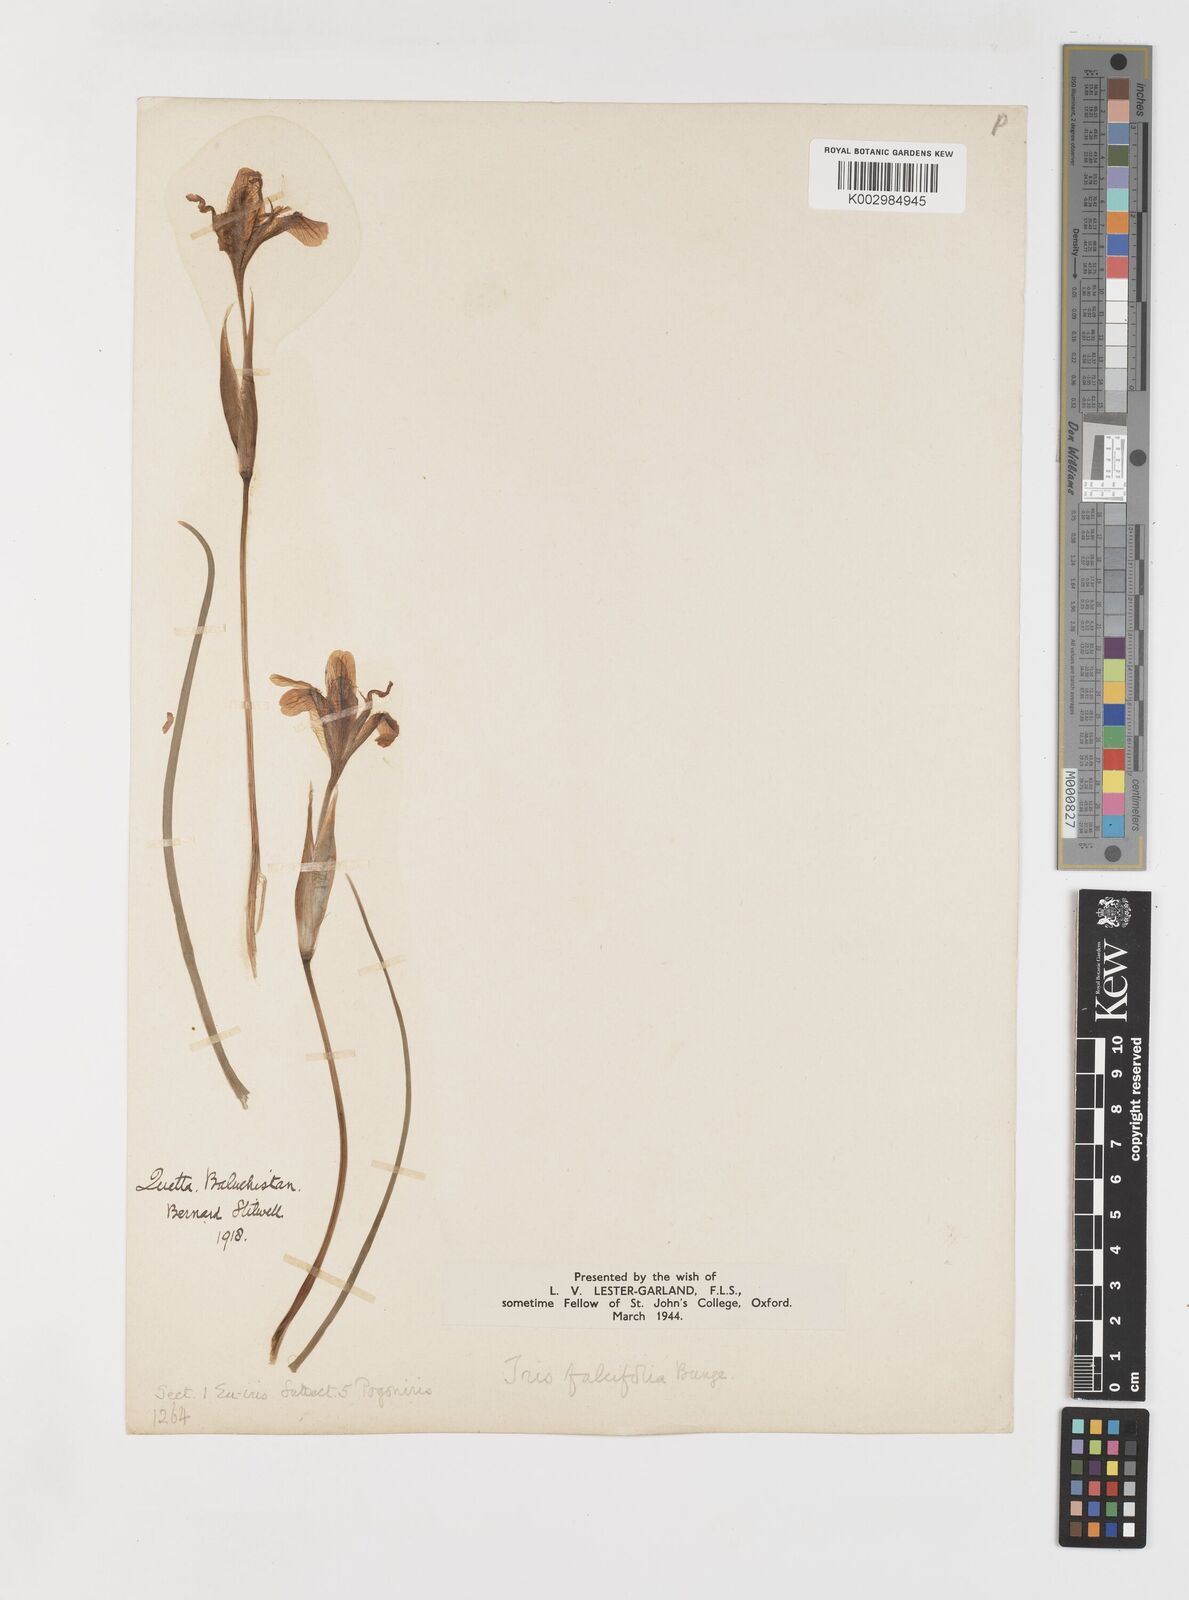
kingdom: Plantae
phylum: Tracheophyta
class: Liliopsida
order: Asparagales
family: Iridaceae
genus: Iris
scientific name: Iris longiscapa
